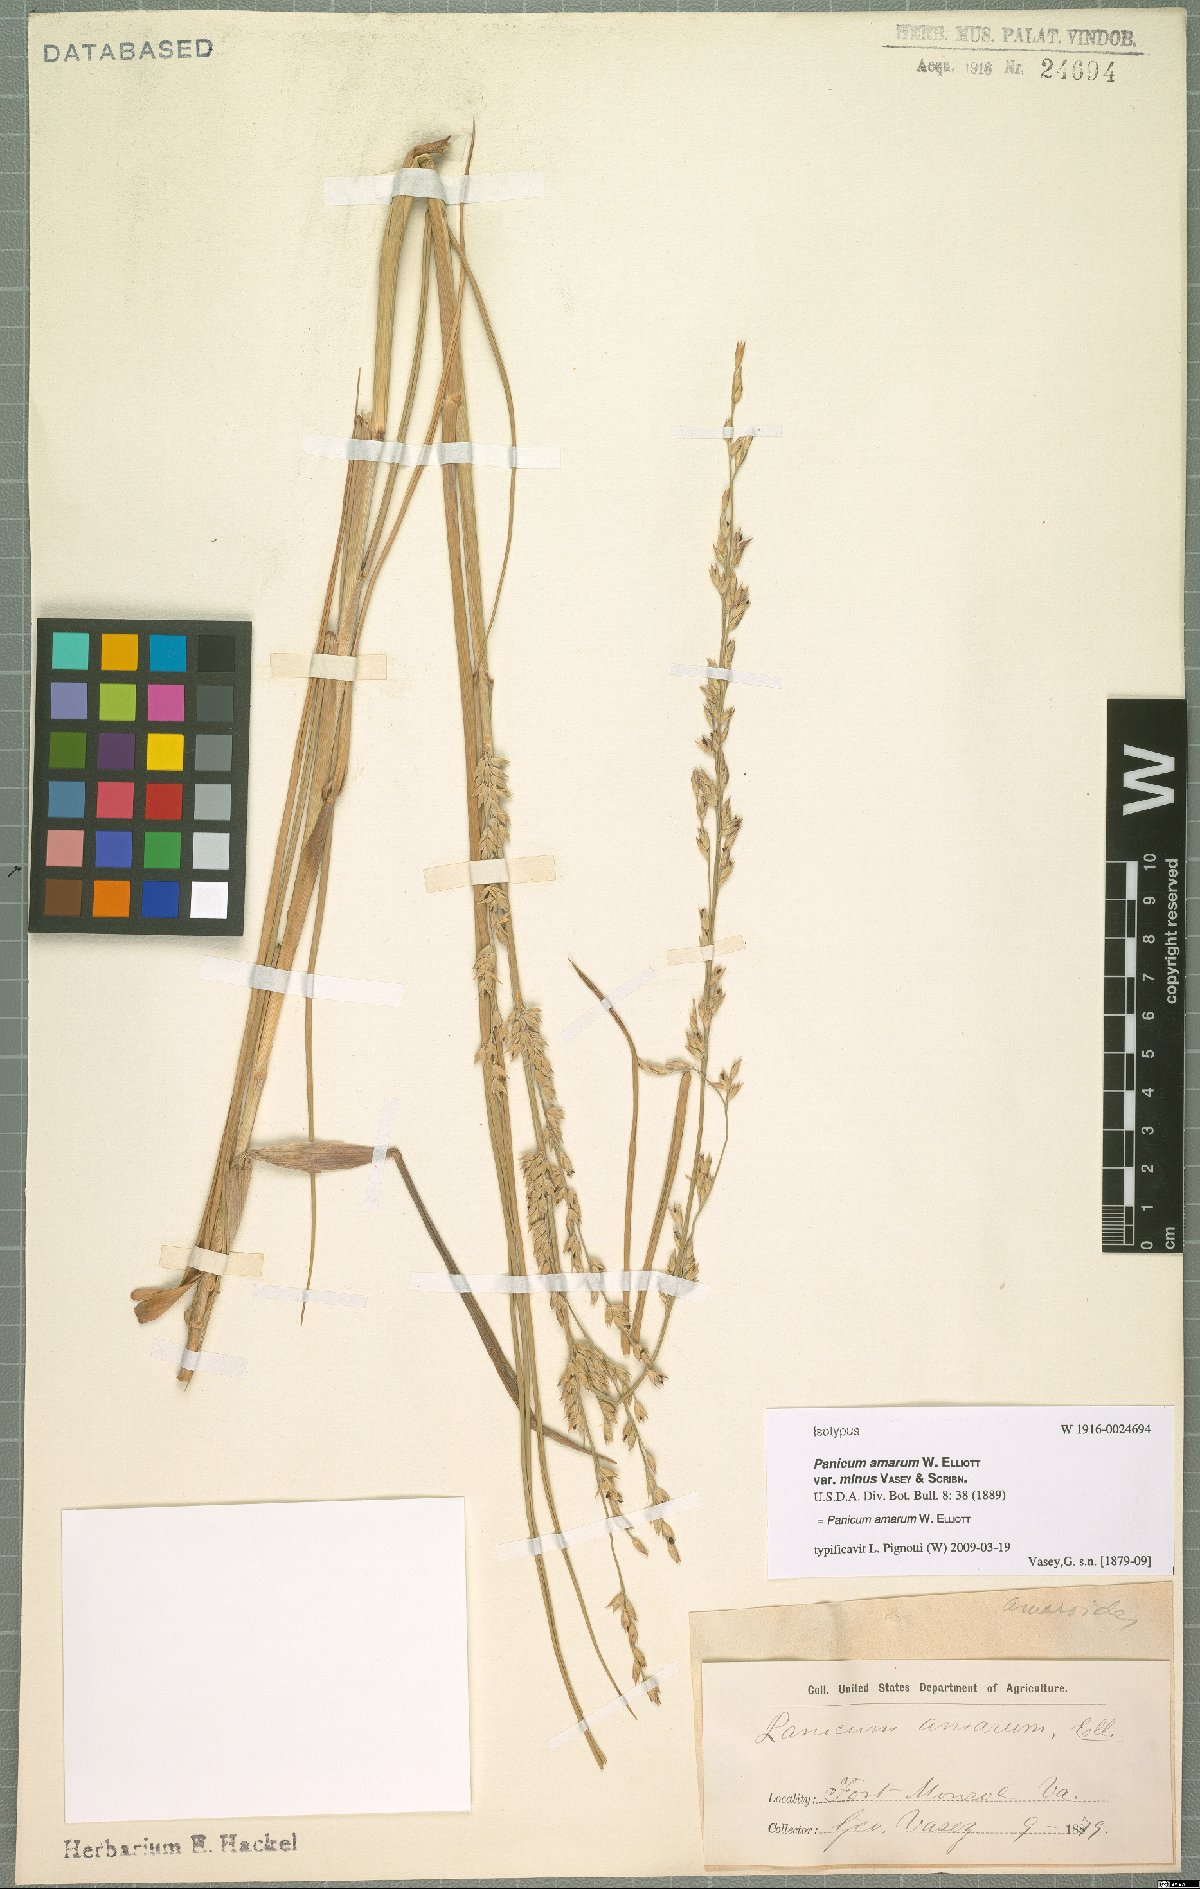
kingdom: Plantae
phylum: Tracheophyta
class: Liliopsida
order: Poales
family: Poaceae
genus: Panicum
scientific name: Panicum amarum
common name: Bitter panicum
